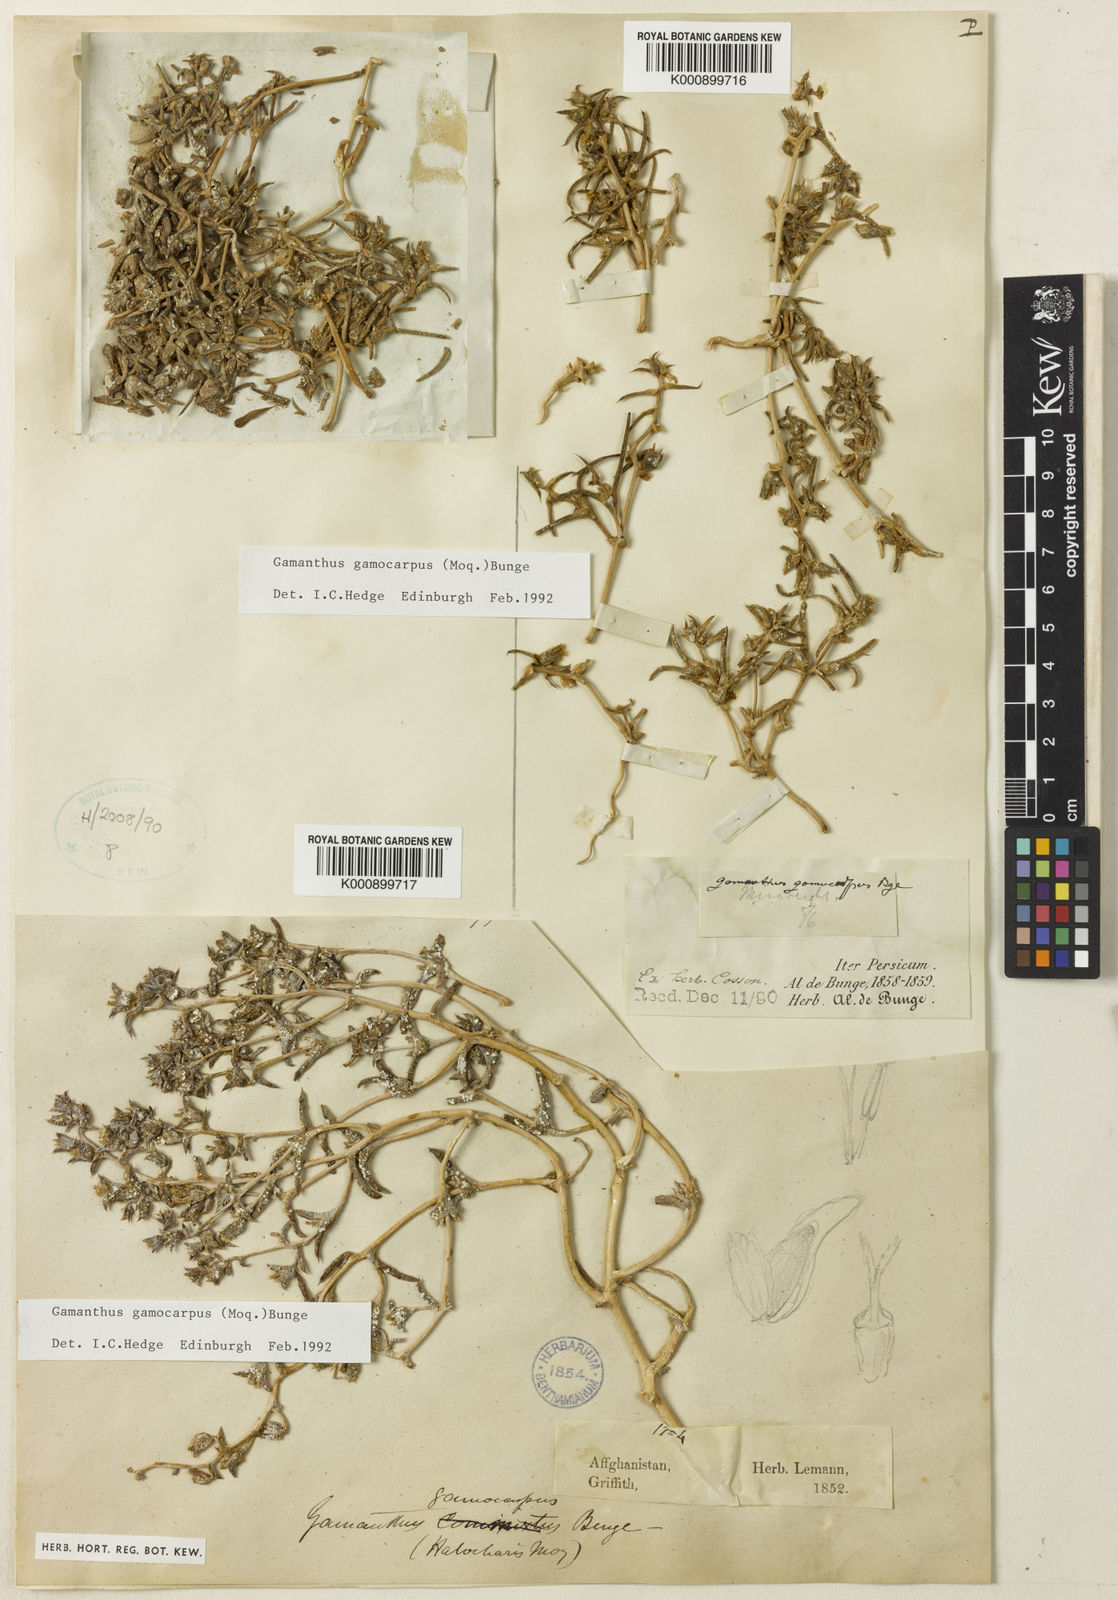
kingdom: Plantae
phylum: Tracheophyta
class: Magnoliopsida
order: Caryophyllales
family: Amaranthaceae
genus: Halimocnemis
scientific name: Halimocnemis
